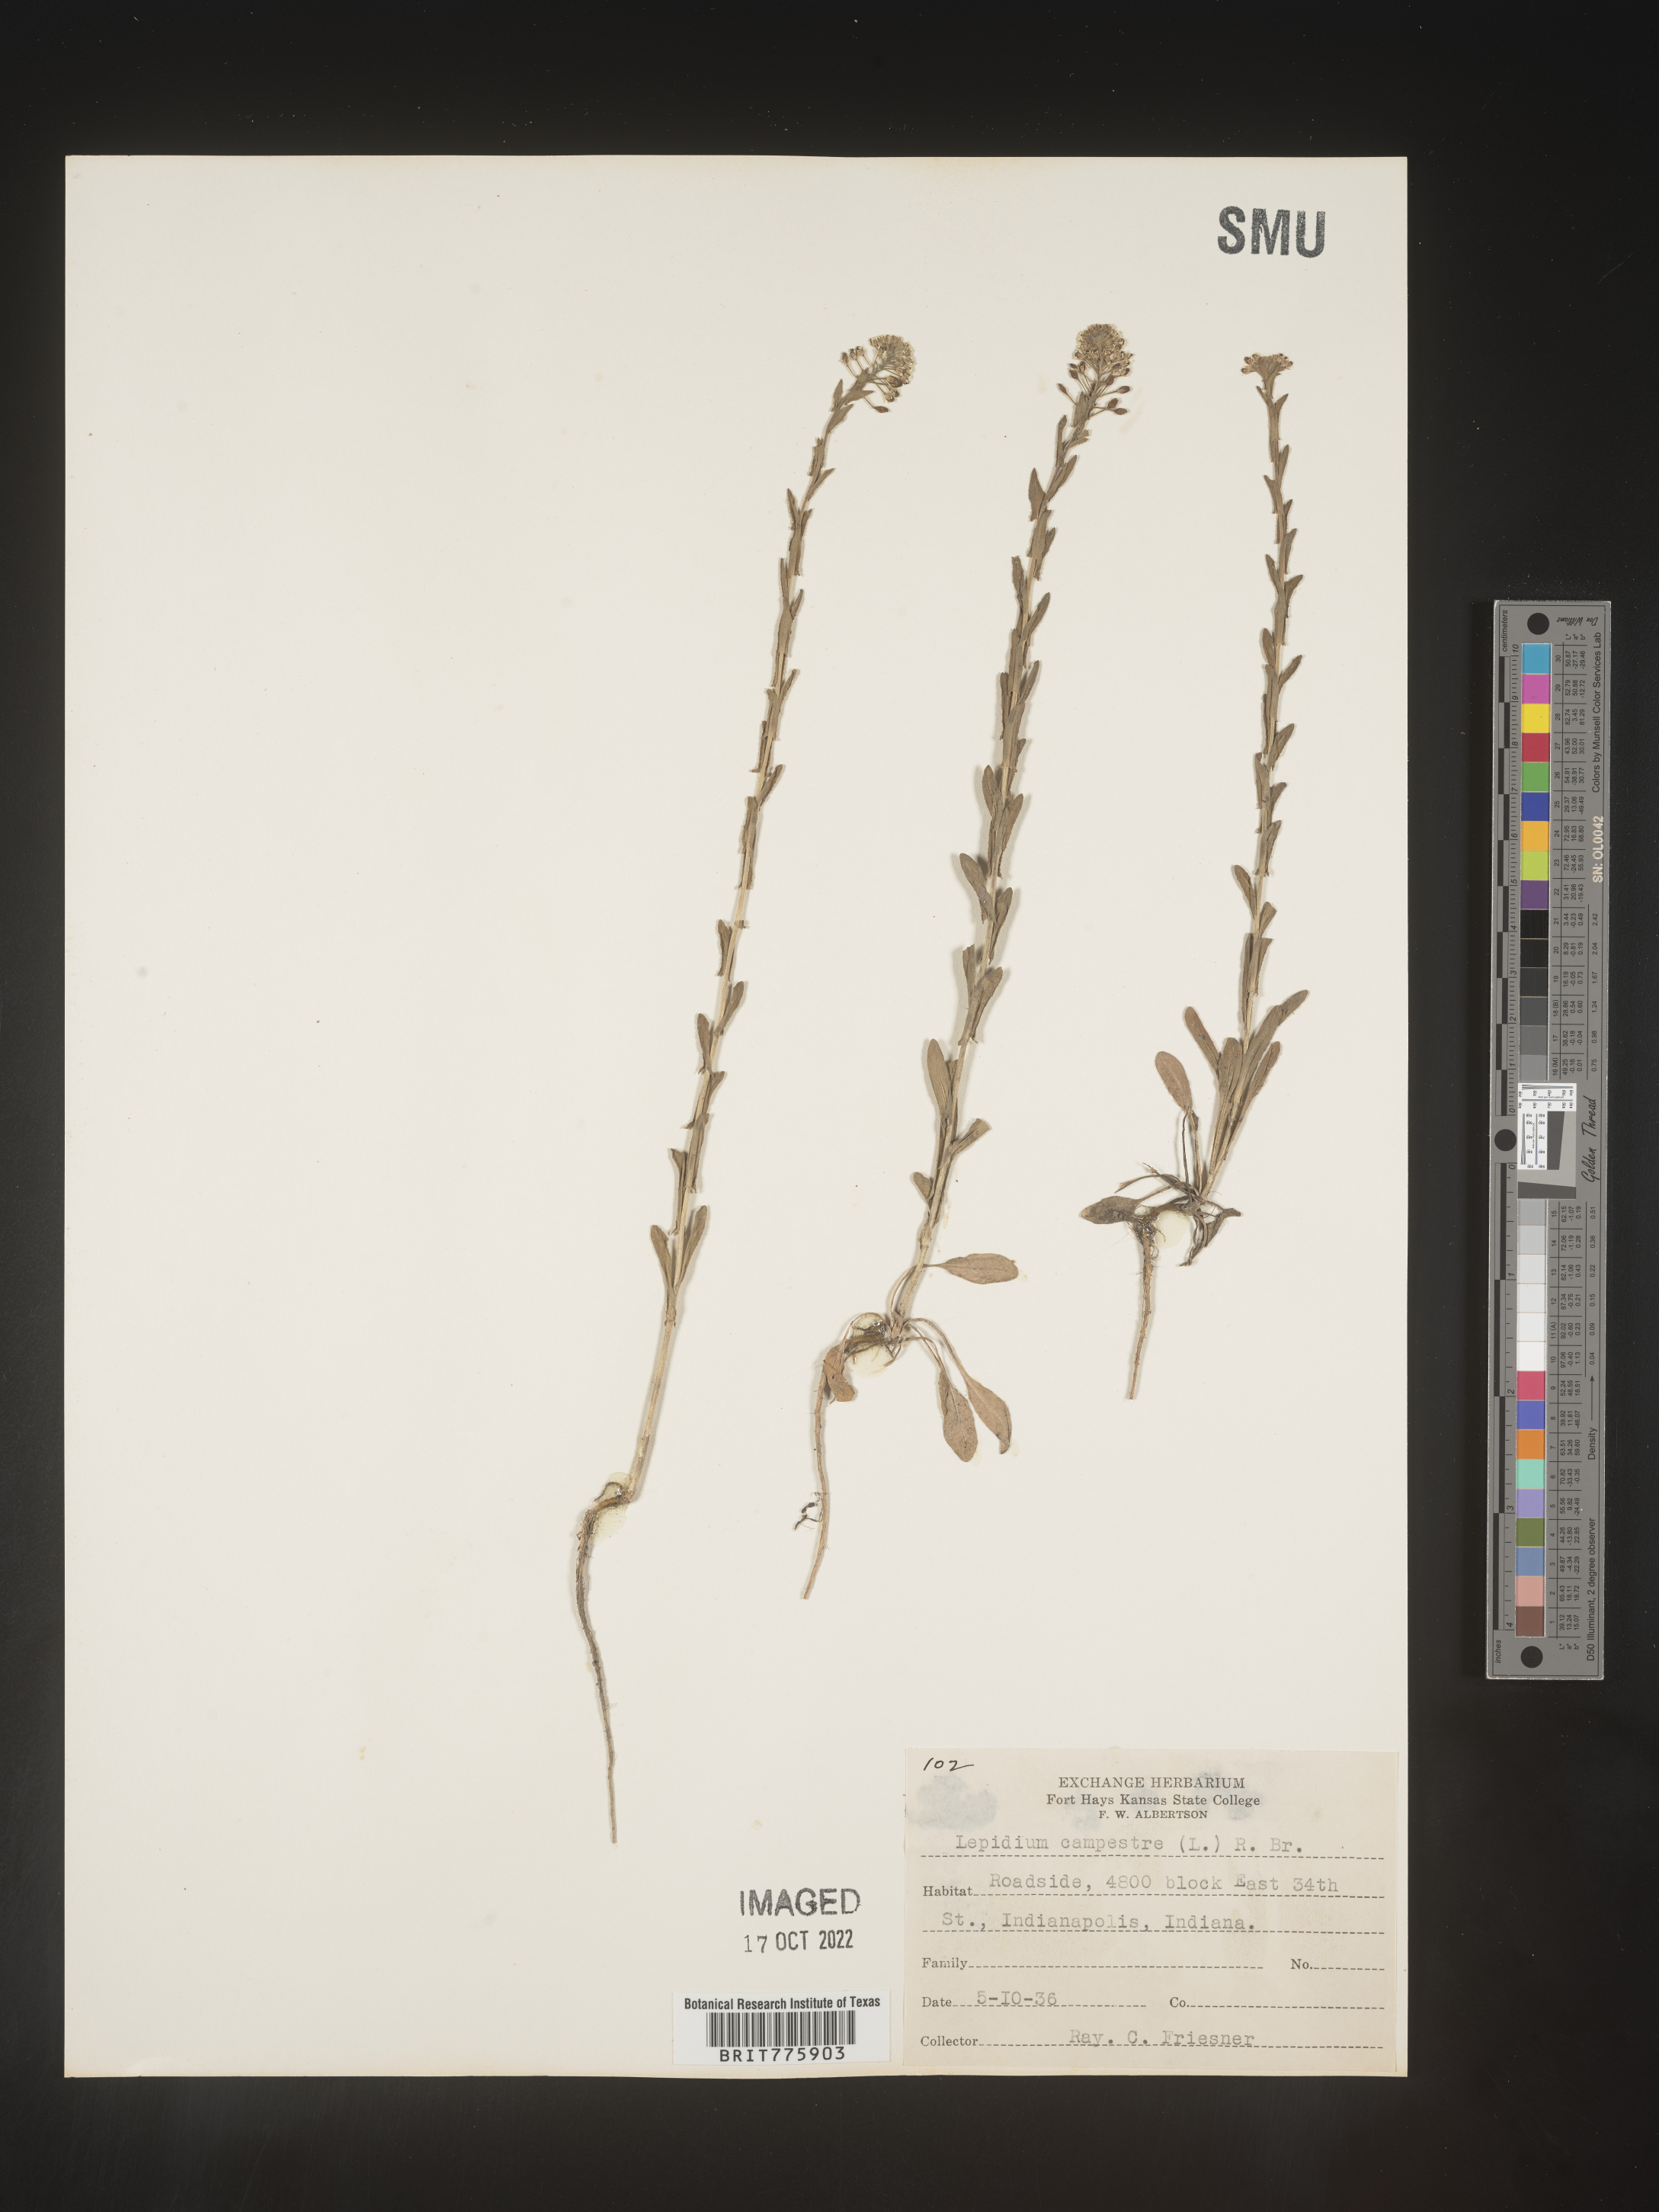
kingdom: Plantae
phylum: Tracheophyta
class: Magnoliopsida
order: Brassicales
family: Brassicaceae
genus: Lepidium
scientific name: Lepidium campestre
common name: Field pepperwort
